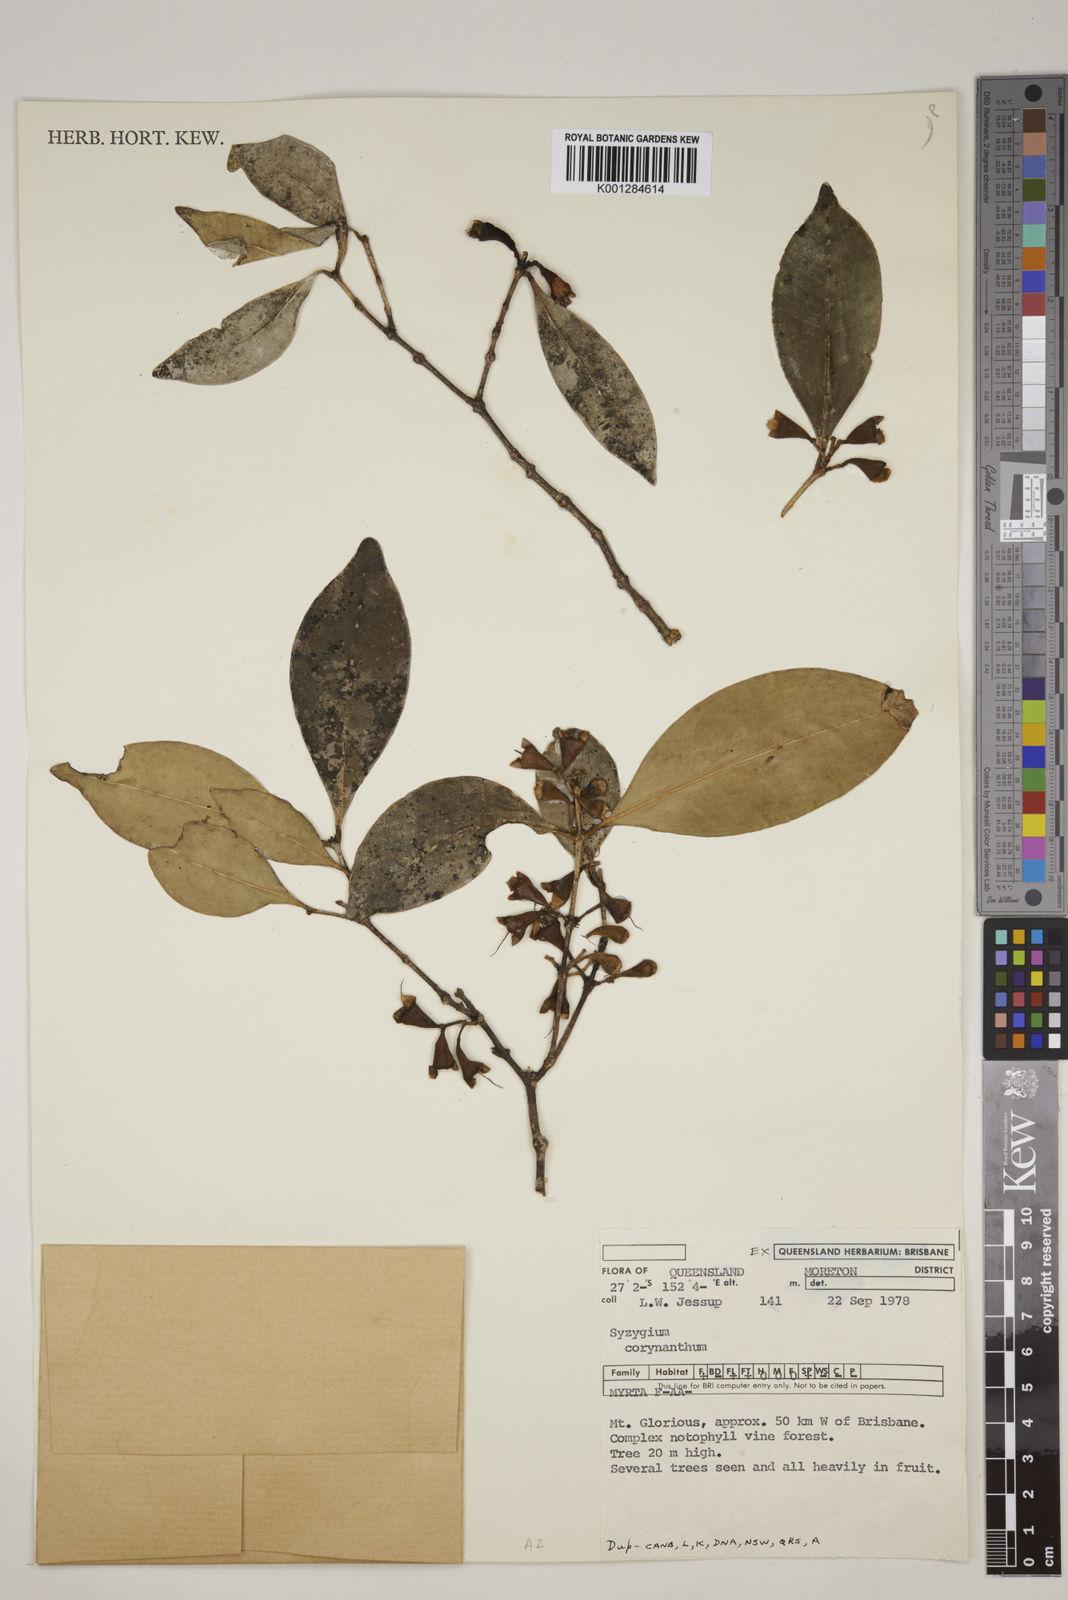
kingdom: Plantae
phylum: Tracheophyta
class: Magnoliopsida
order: Myrtales
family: Myrtaceae
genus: Syzygium
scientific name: Syzygium corynanthum
